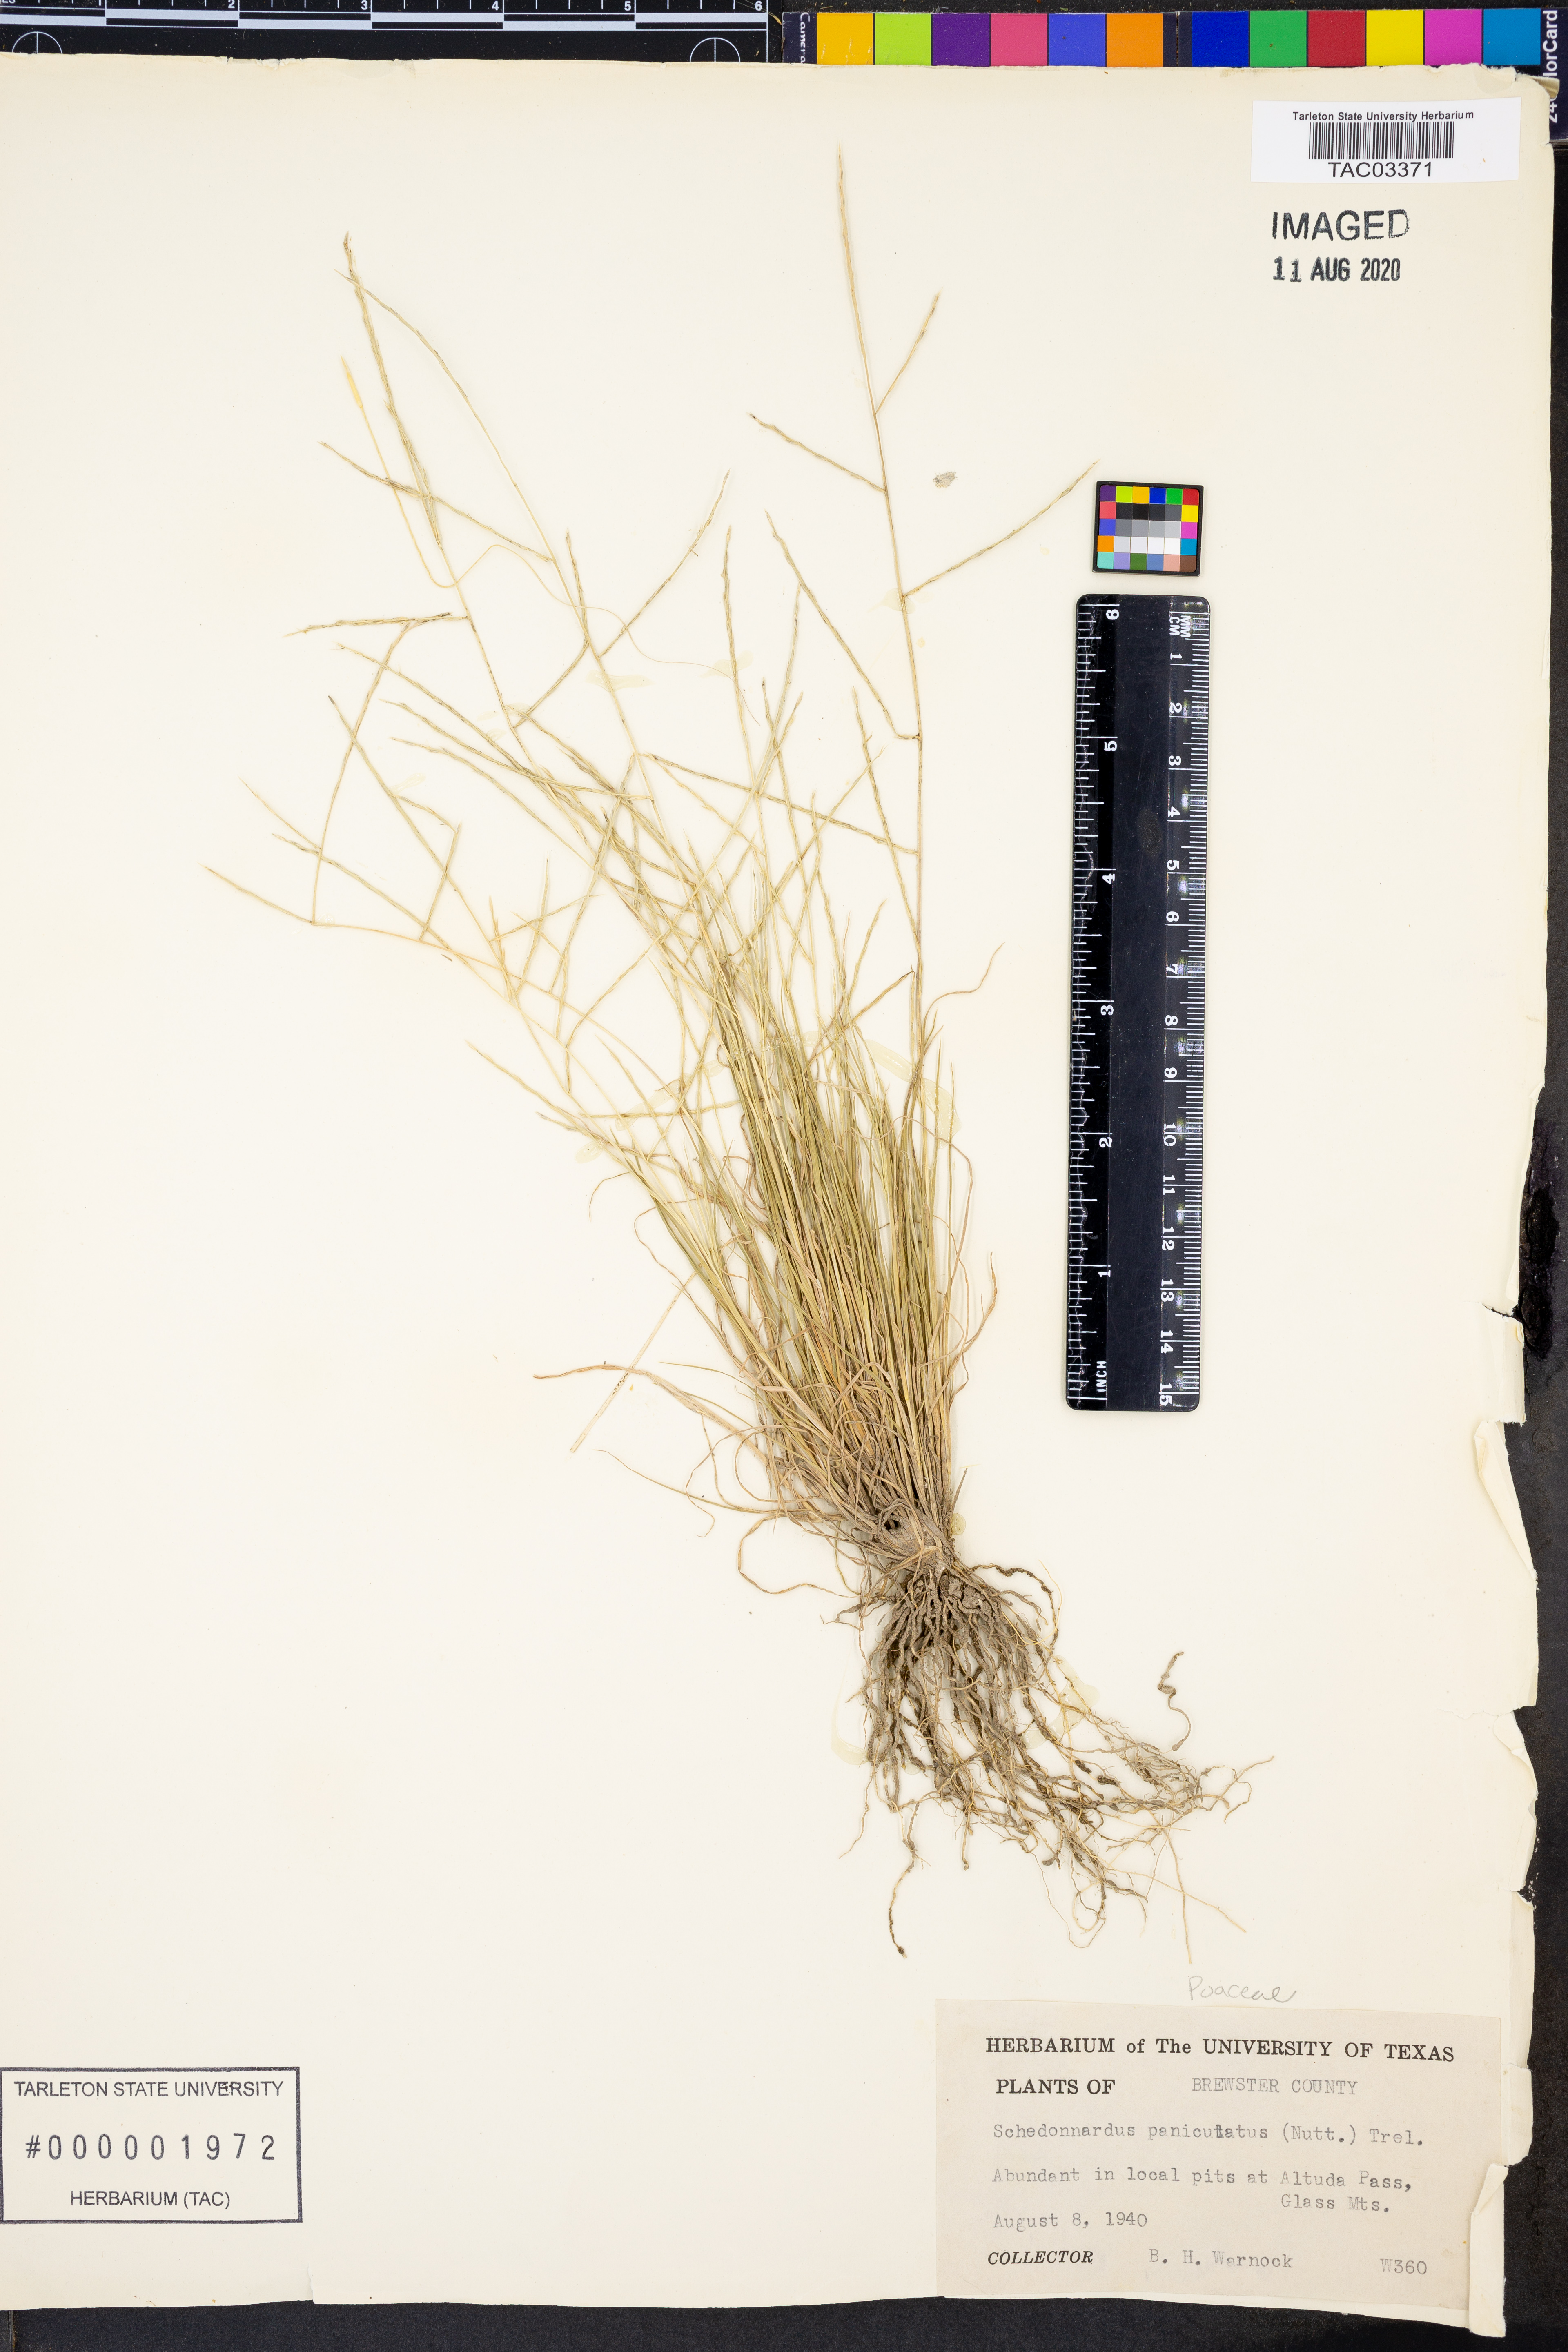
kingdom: Plantae
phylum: Tracheophyta
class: Liliopsida
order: Poales
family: Poaceae
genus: Muhlenbergia
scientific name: Muhlenbergia paniculata
